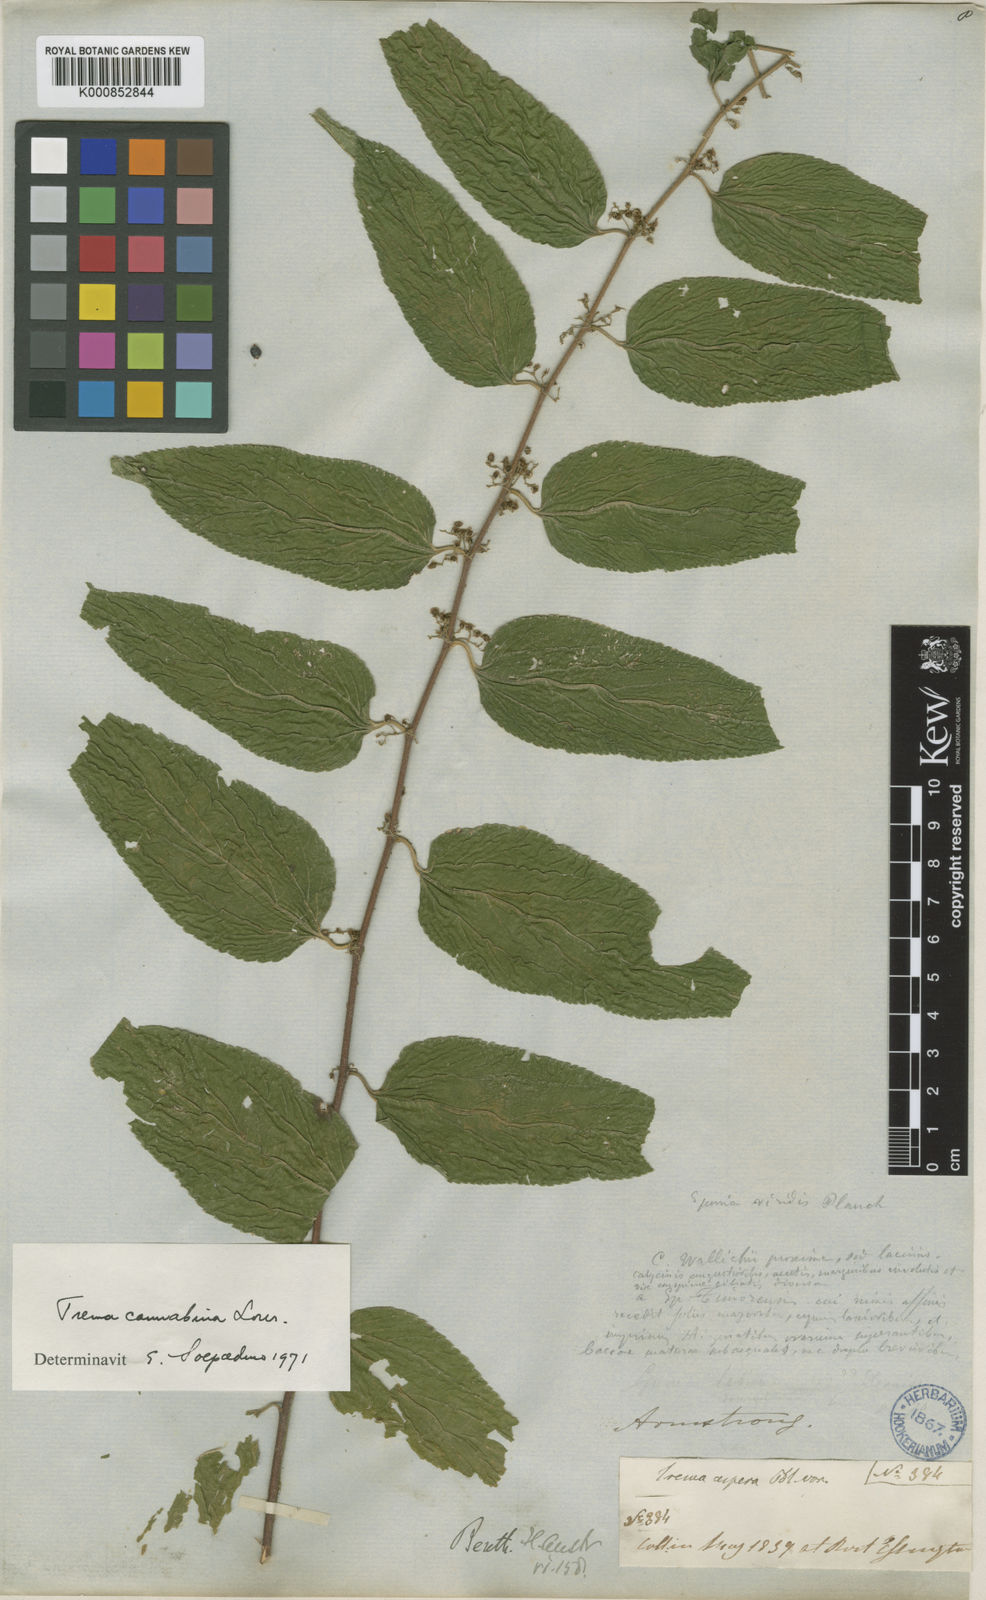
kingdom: Plantae
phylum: Tracheophyta
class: Magnoliopsida
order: Rosales
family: Cannabaceae
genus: Trema
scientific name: Trema tomentosum
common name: Peach-leaf-poisonbush
